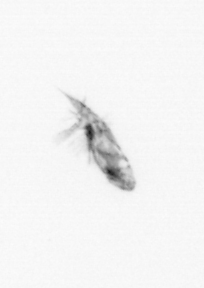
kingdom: Animalia
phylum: Annelida
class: Polychaeta
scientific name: Polychaeta
